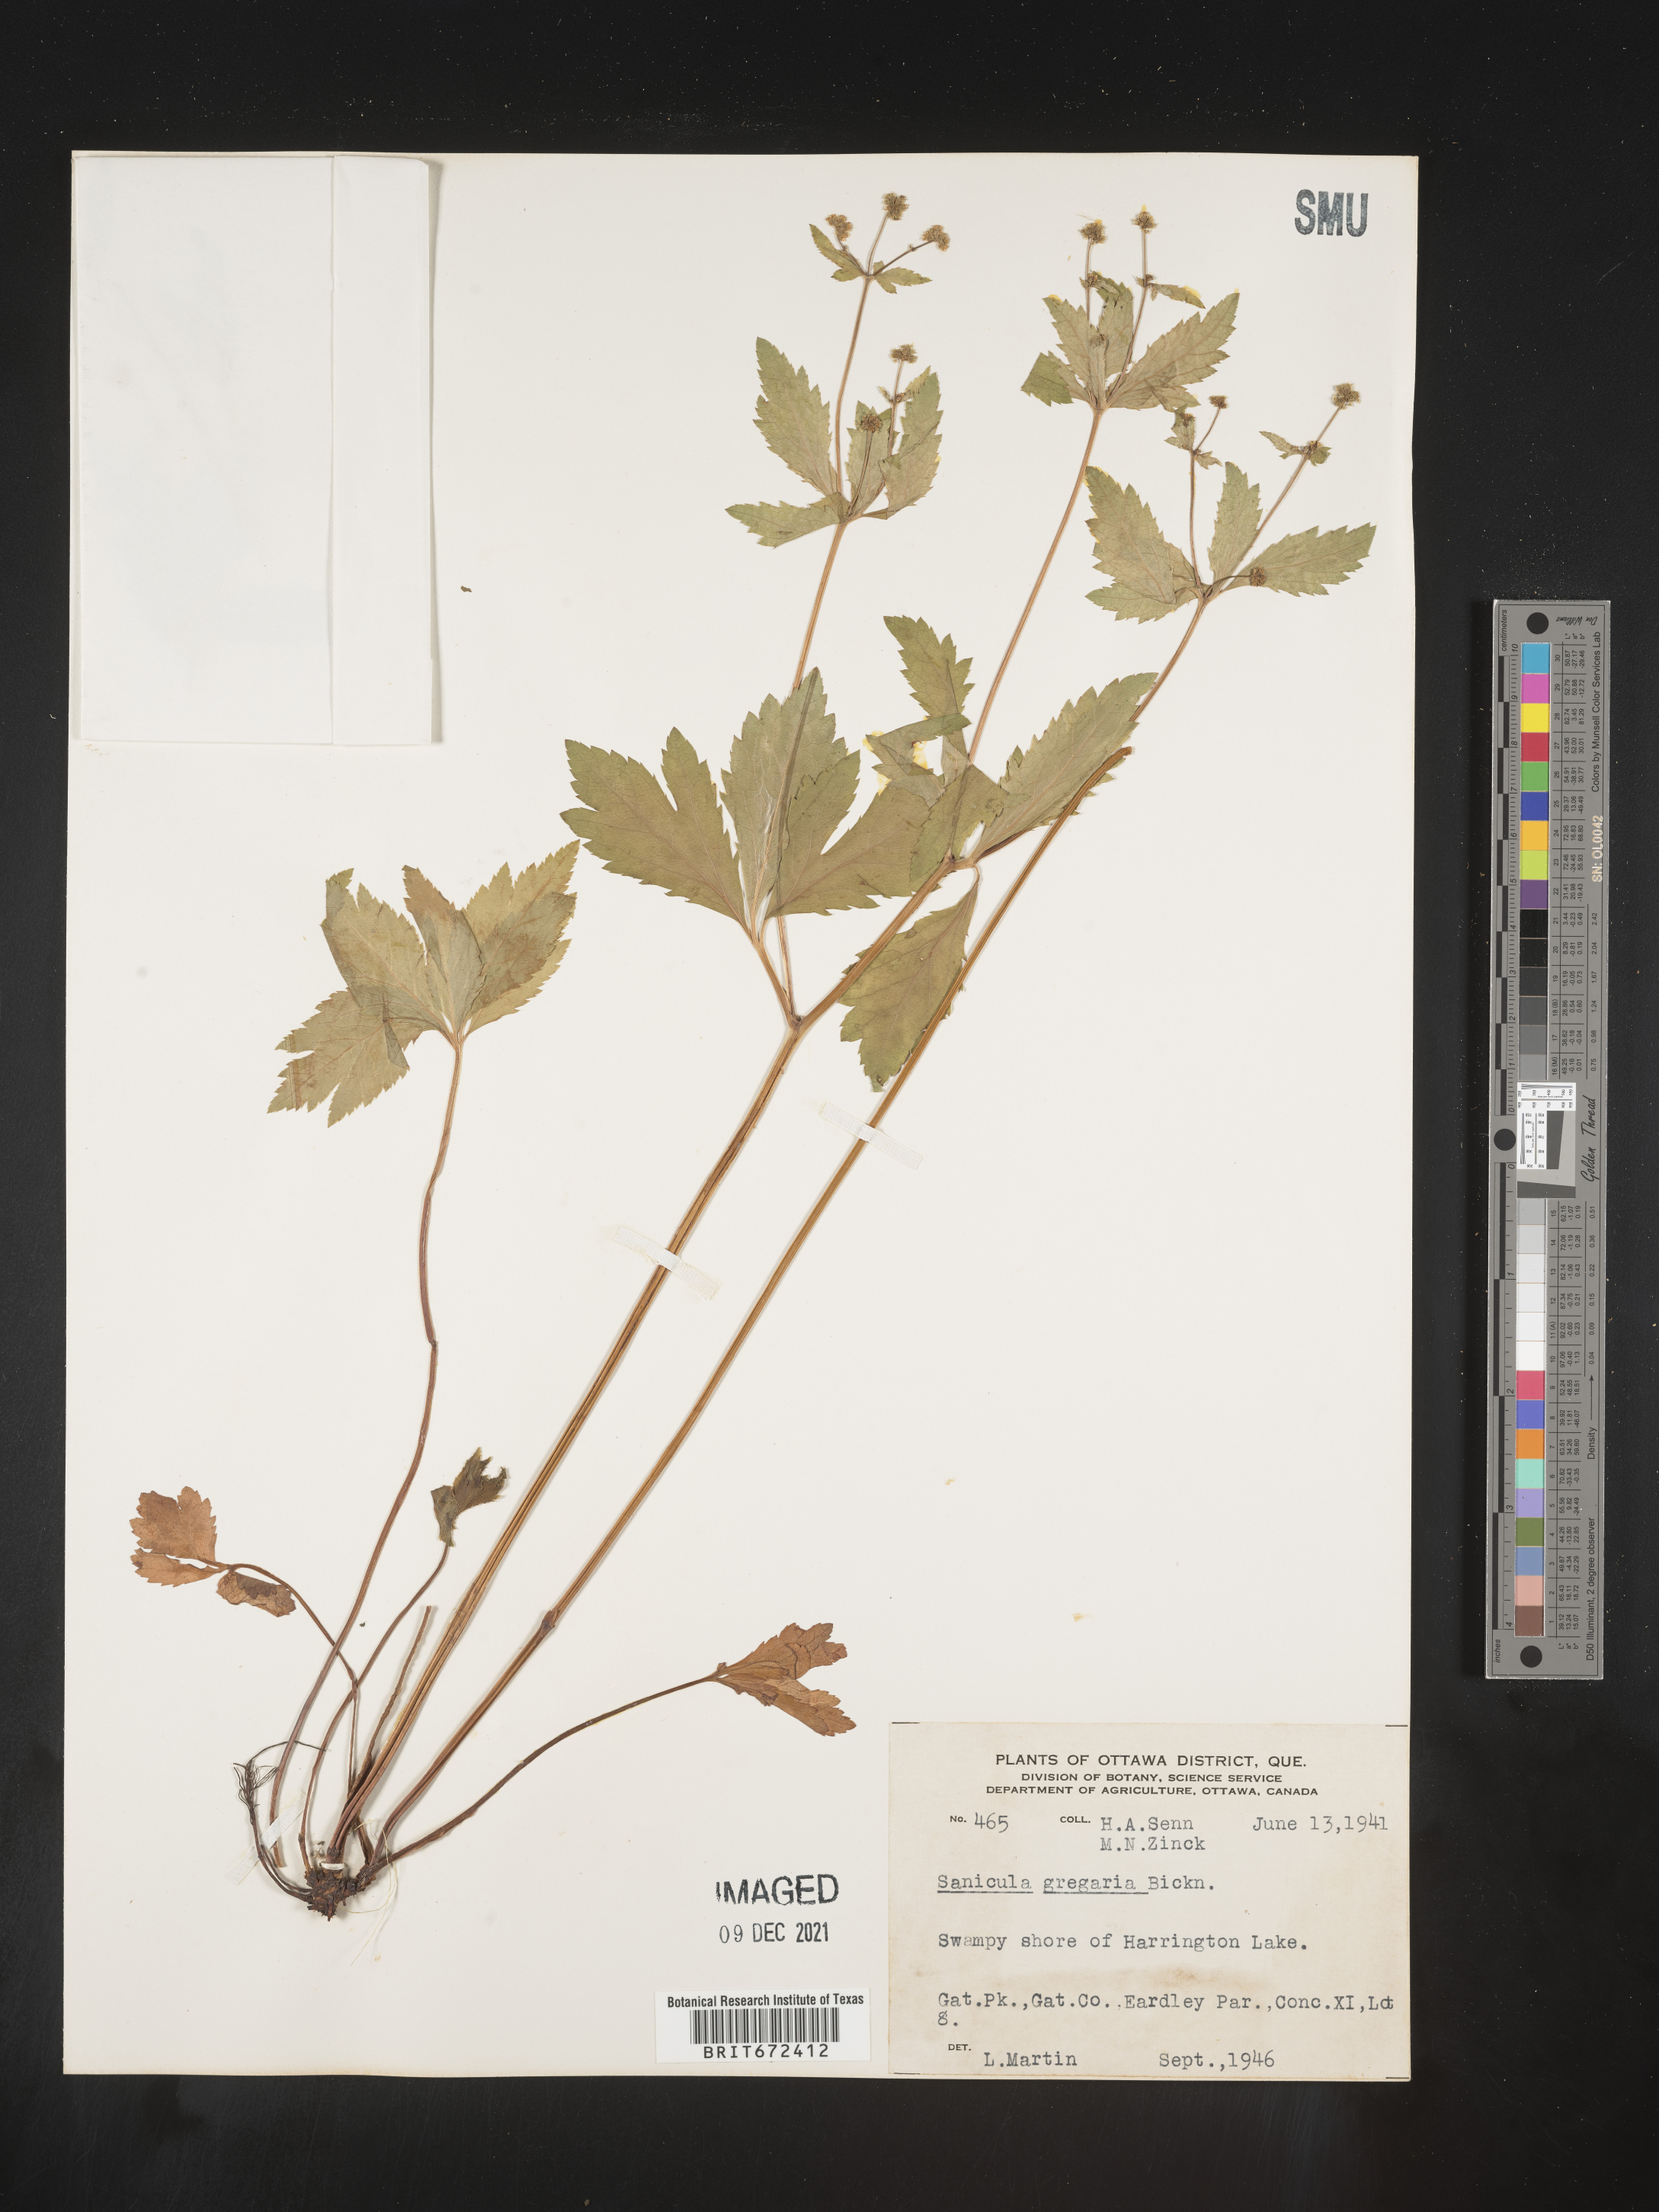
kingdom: Plantae
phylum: Tracheophyta
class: Magnoliopsida
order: Apiales
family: Apiaceae
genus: Sanicula
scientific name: Sanicula odorata
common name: Cluster sanicle
